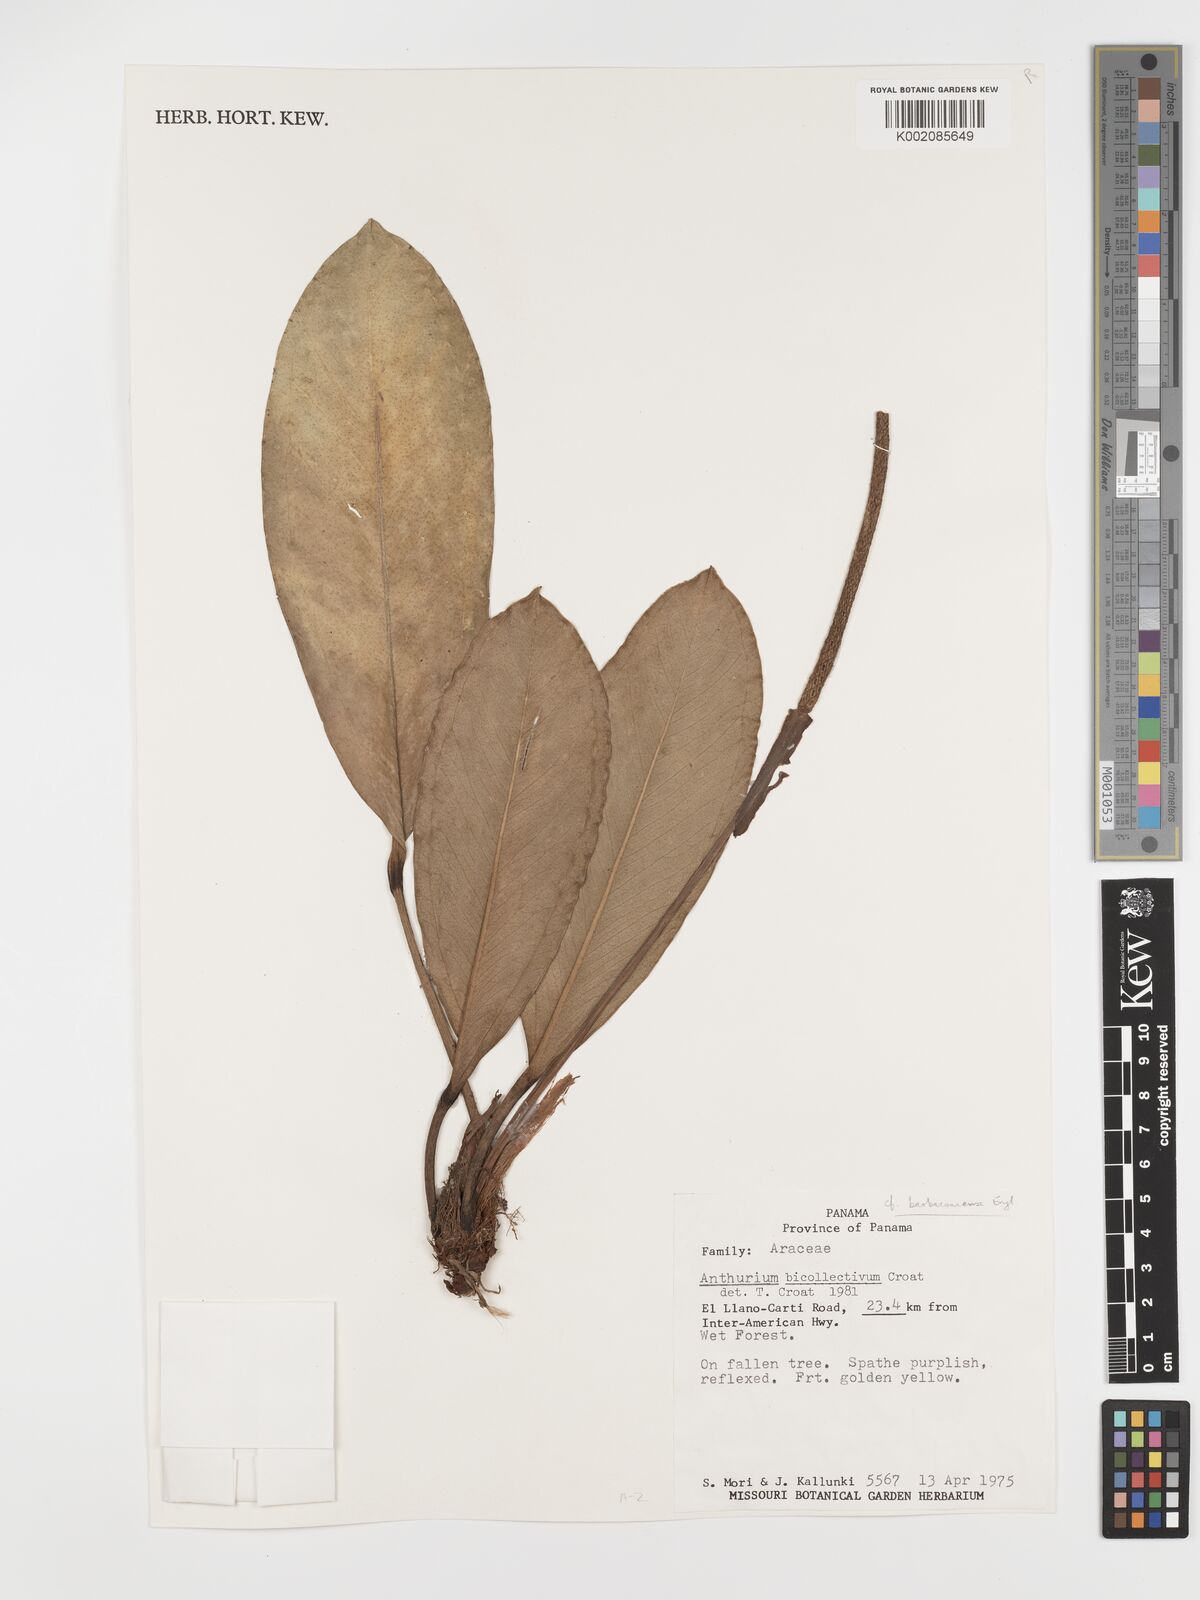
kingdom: Plantae
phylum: Tracheophyta
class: Liliopsida
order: Alismatales
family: Araceae
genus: Anthurium
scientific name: Anthurium durandii
